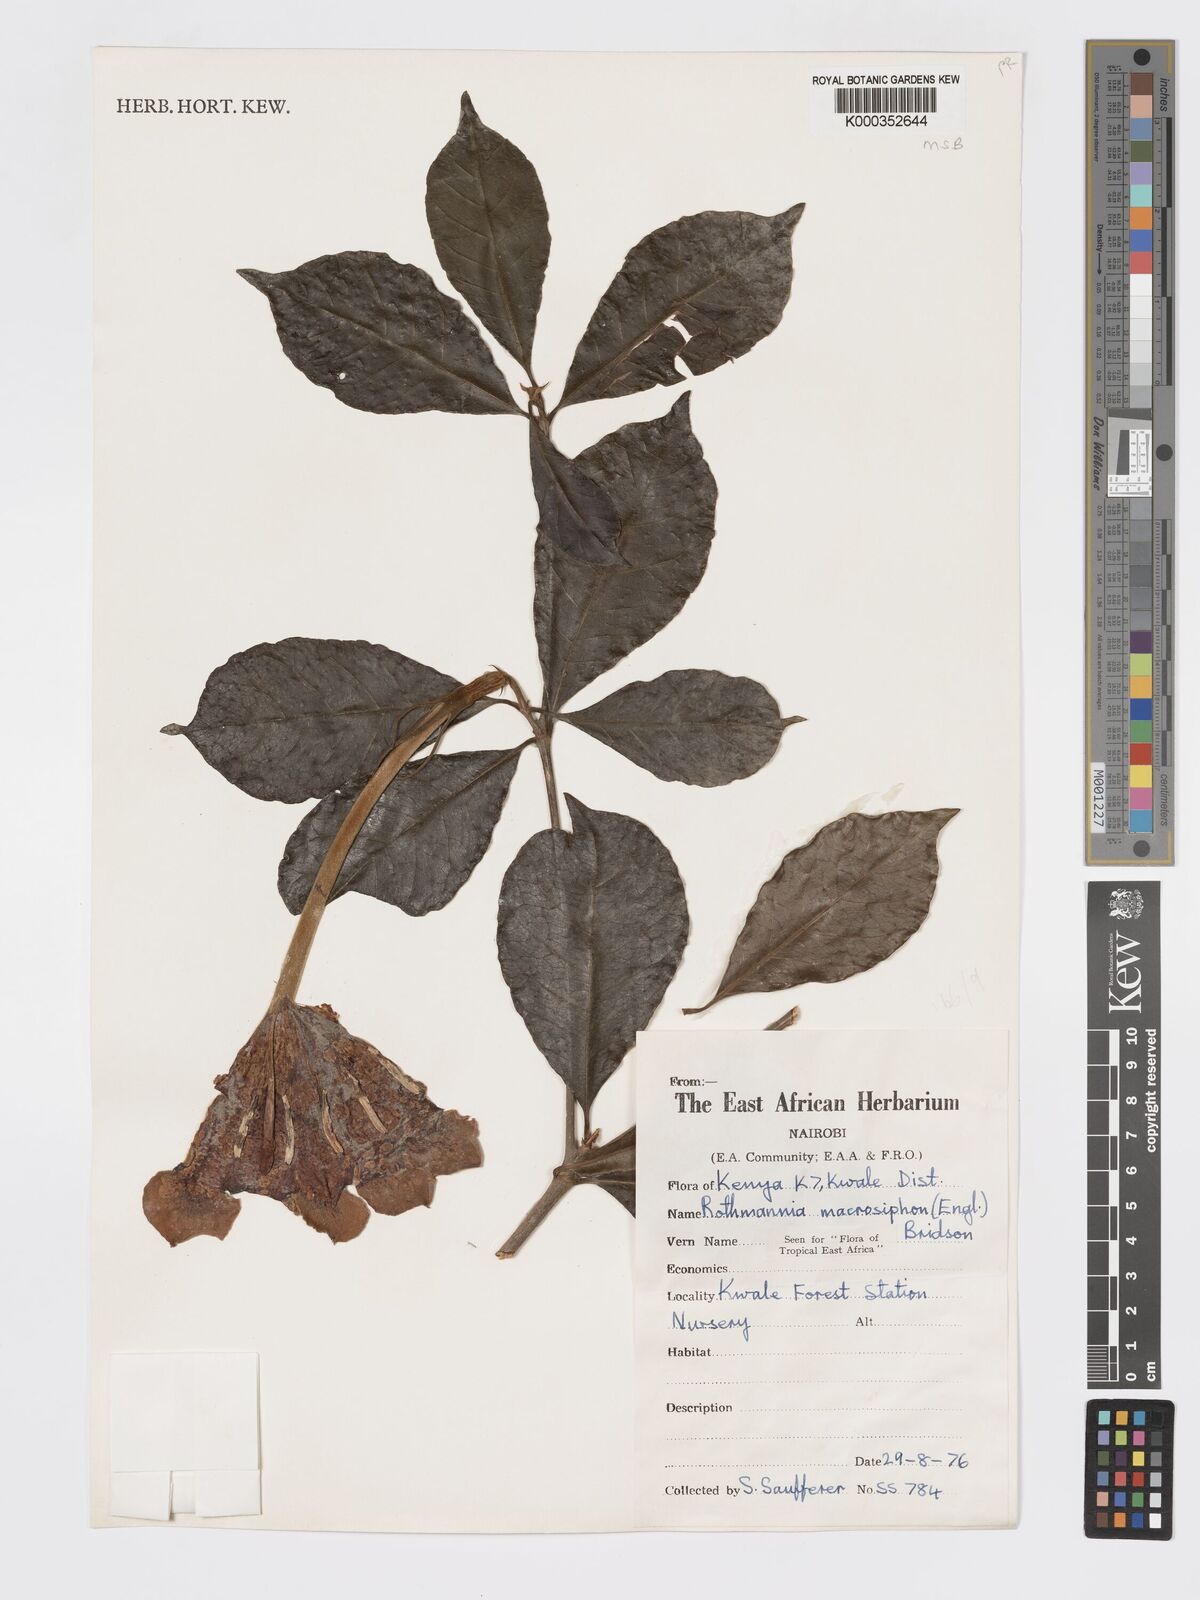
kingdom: Plantae
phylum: Tracheophyta
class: Magnoliopsida
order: Gentianales
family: Rubiaceae
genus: Rothmannia
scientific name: Rothmannia macrosiphon
